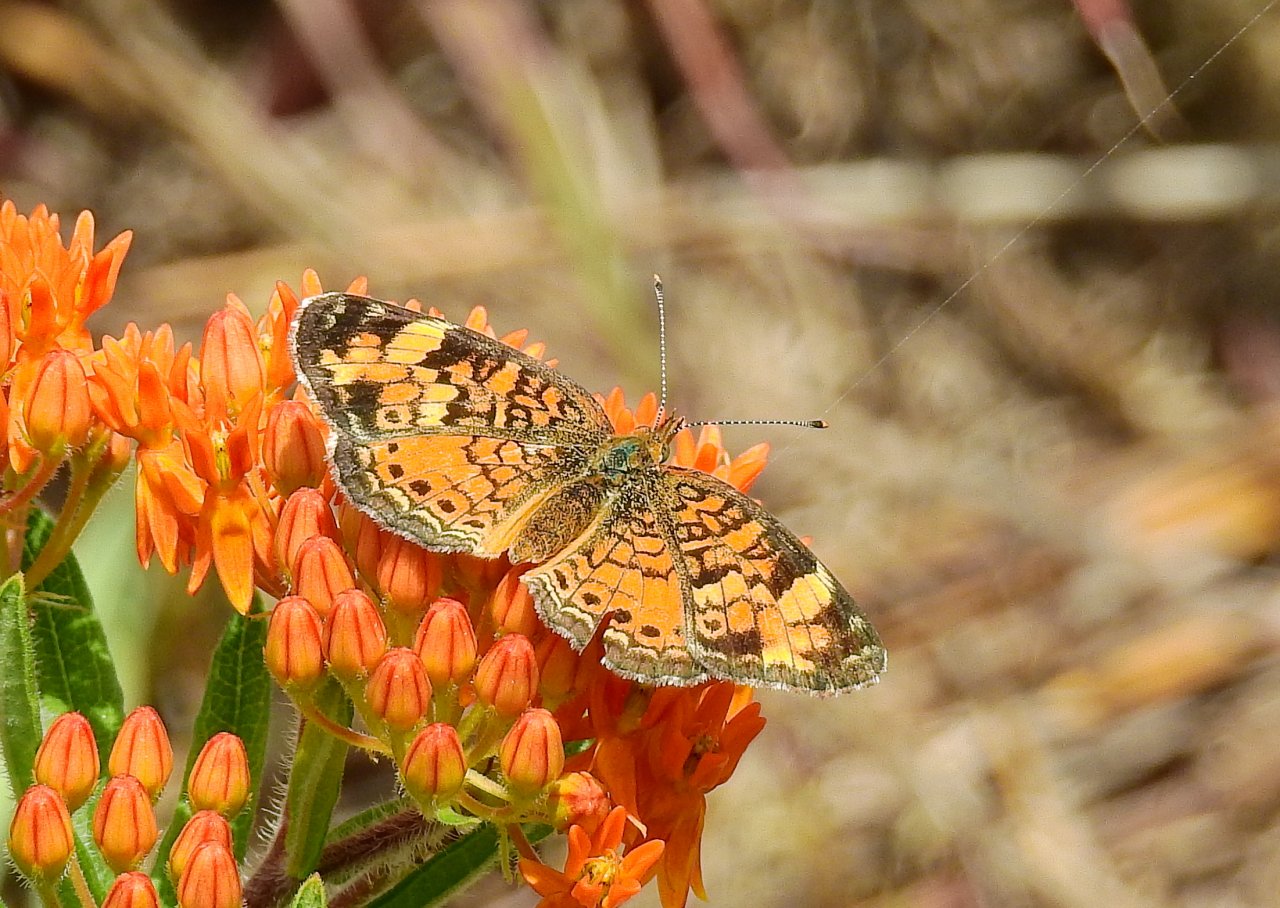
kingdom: Animalia
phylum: Arthropoda
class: Insecta
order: Lepidoptera
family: Nymphalidae
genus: Phyciodes
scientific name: Phyciodes tharos
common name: Northern Crescent
